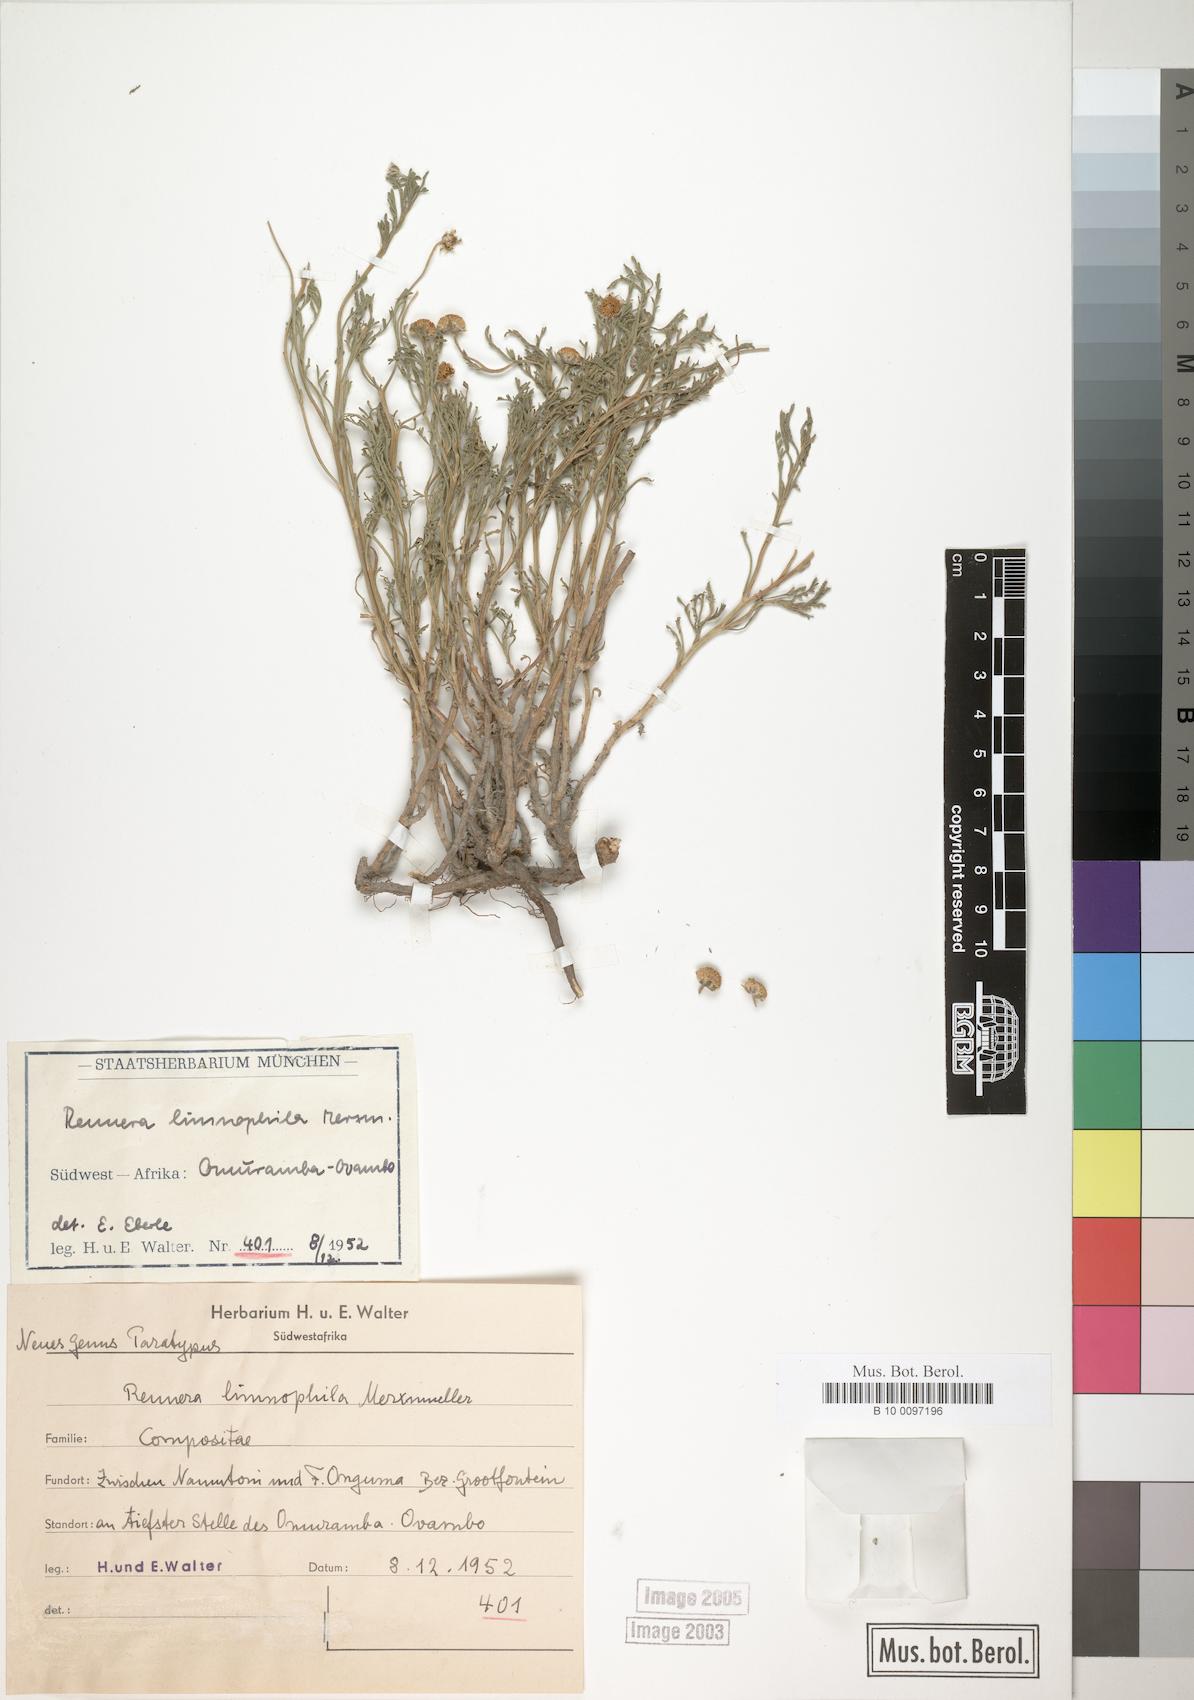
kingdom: Plantae
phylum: Tracheophyta
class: Magnoliopsida
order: Asterales
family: Asteraceae
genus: Pentzia
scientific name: Pentzia limnophila
